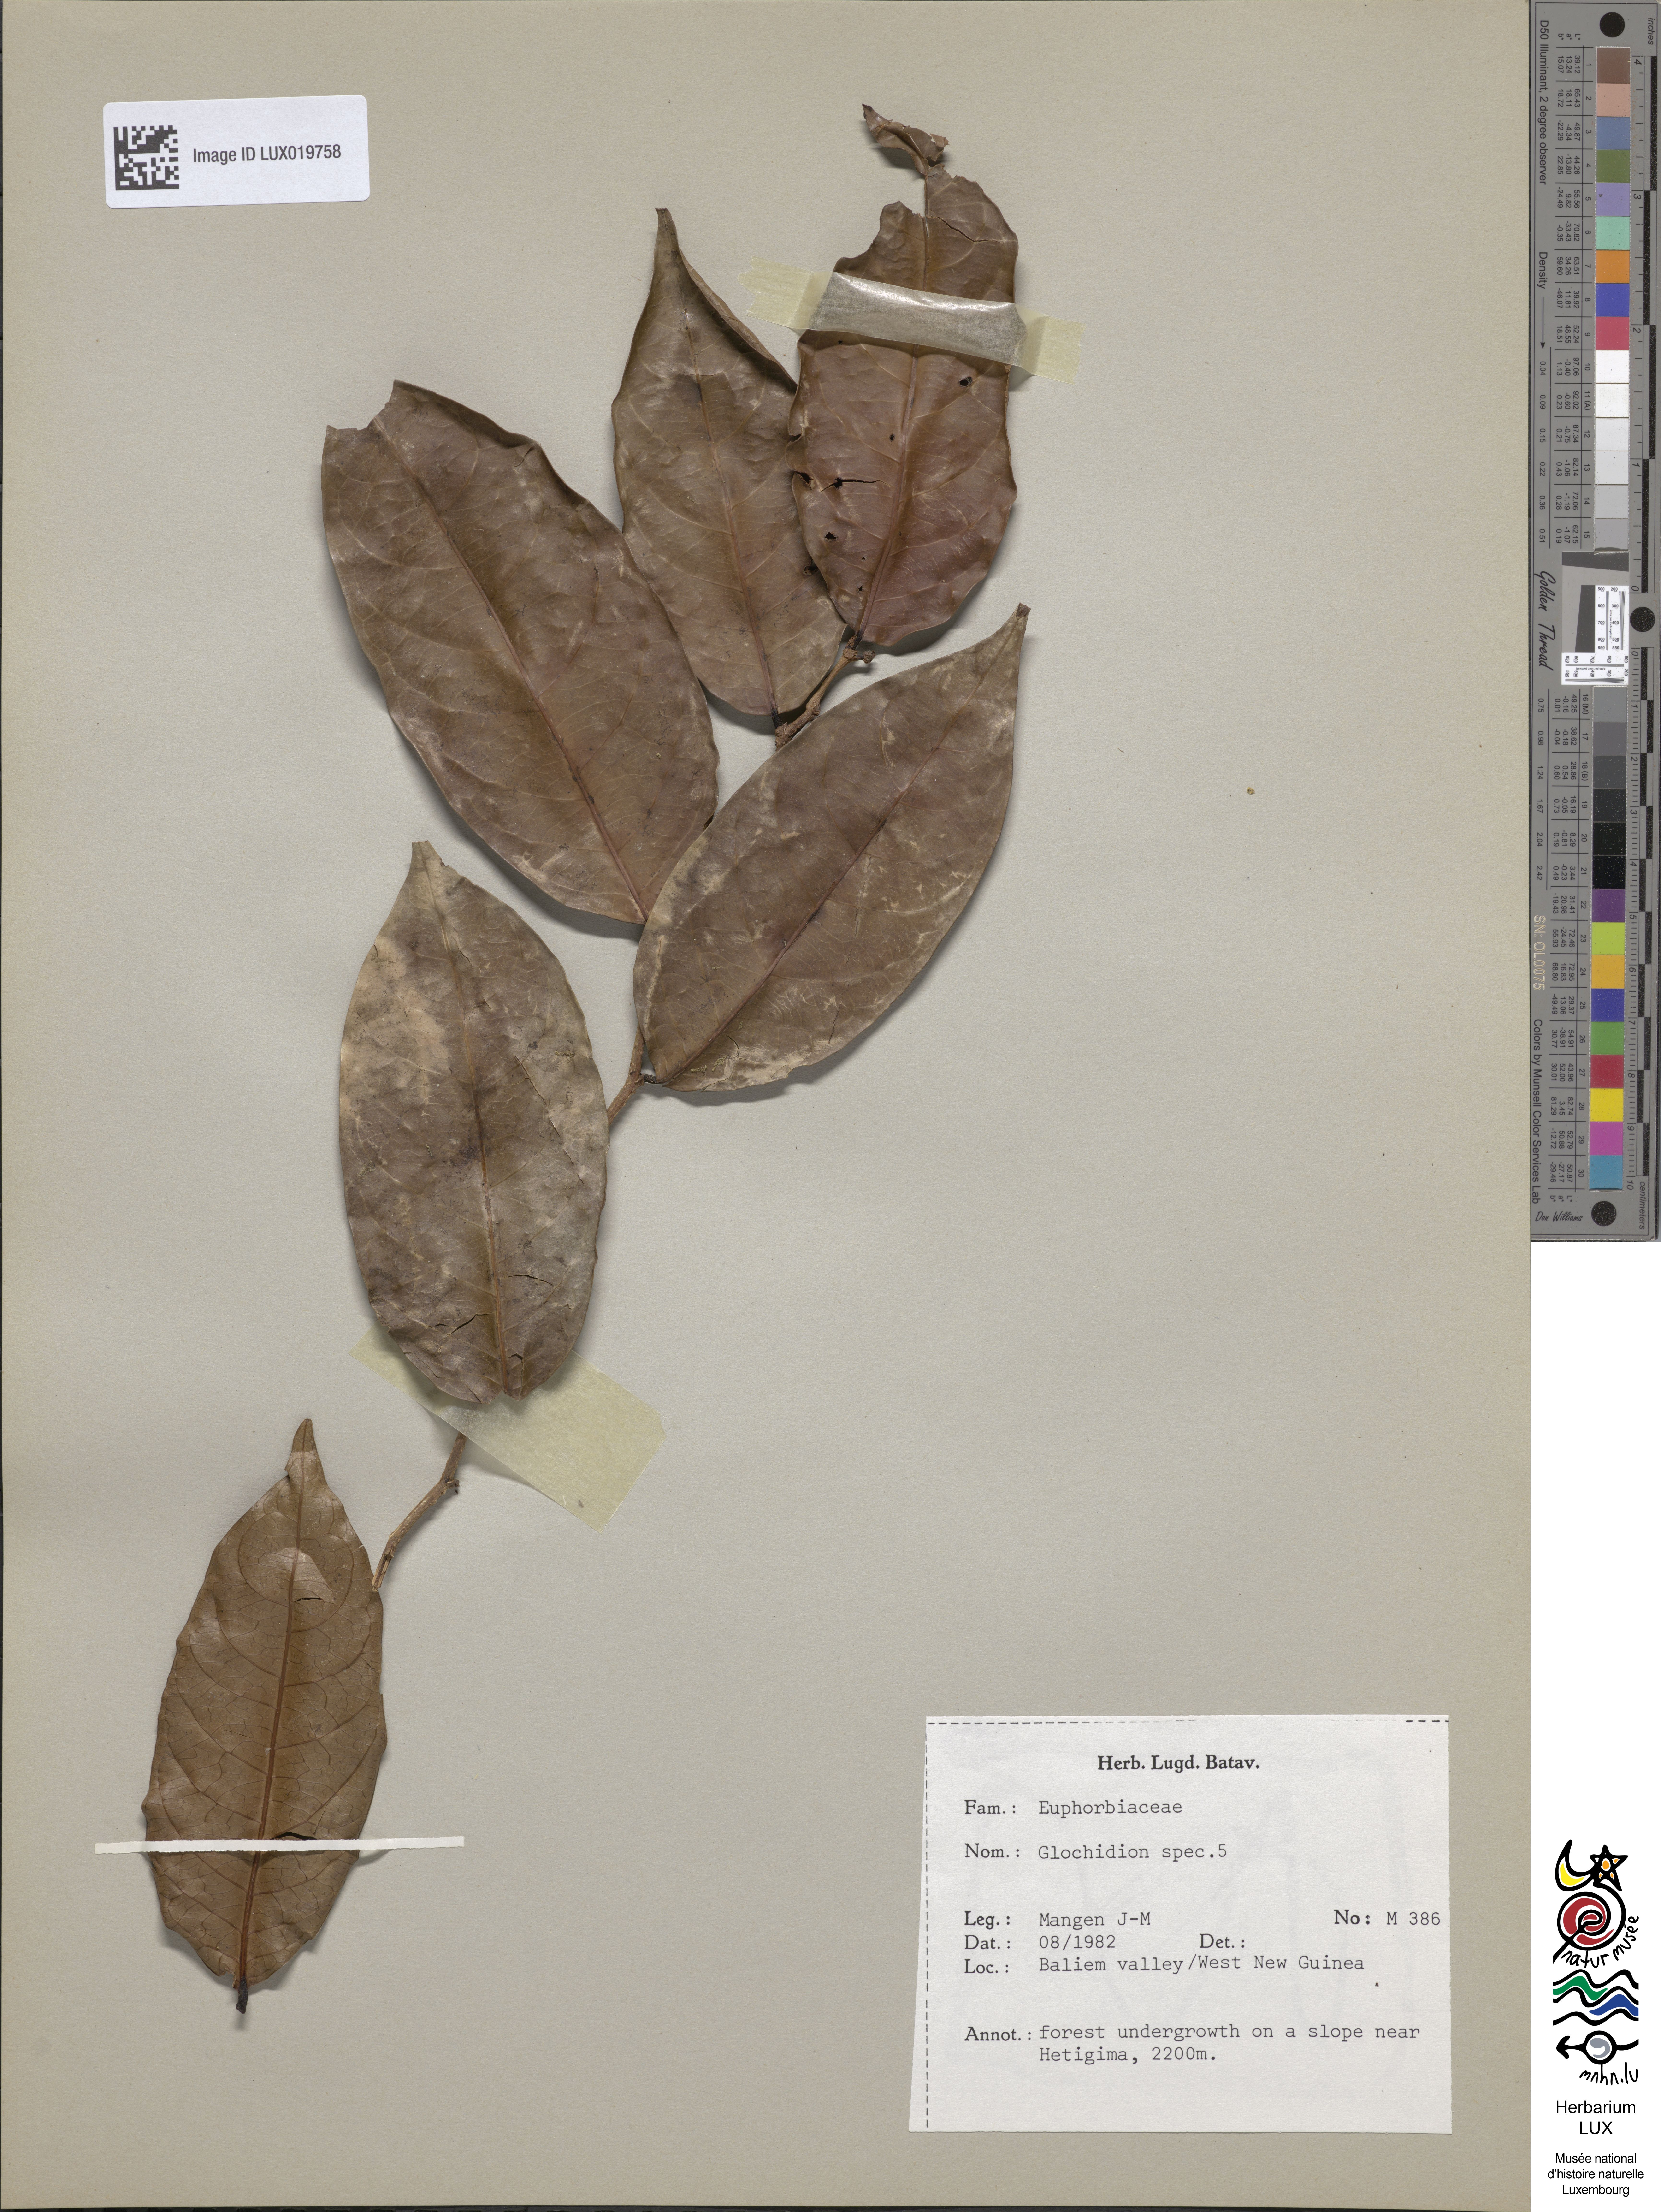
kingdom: Plantae
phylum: Tracheophyta
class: Magnoliopsida
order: Malpighiales
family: Phyllanthaceae
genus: Glochidion
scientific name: Glochidion
